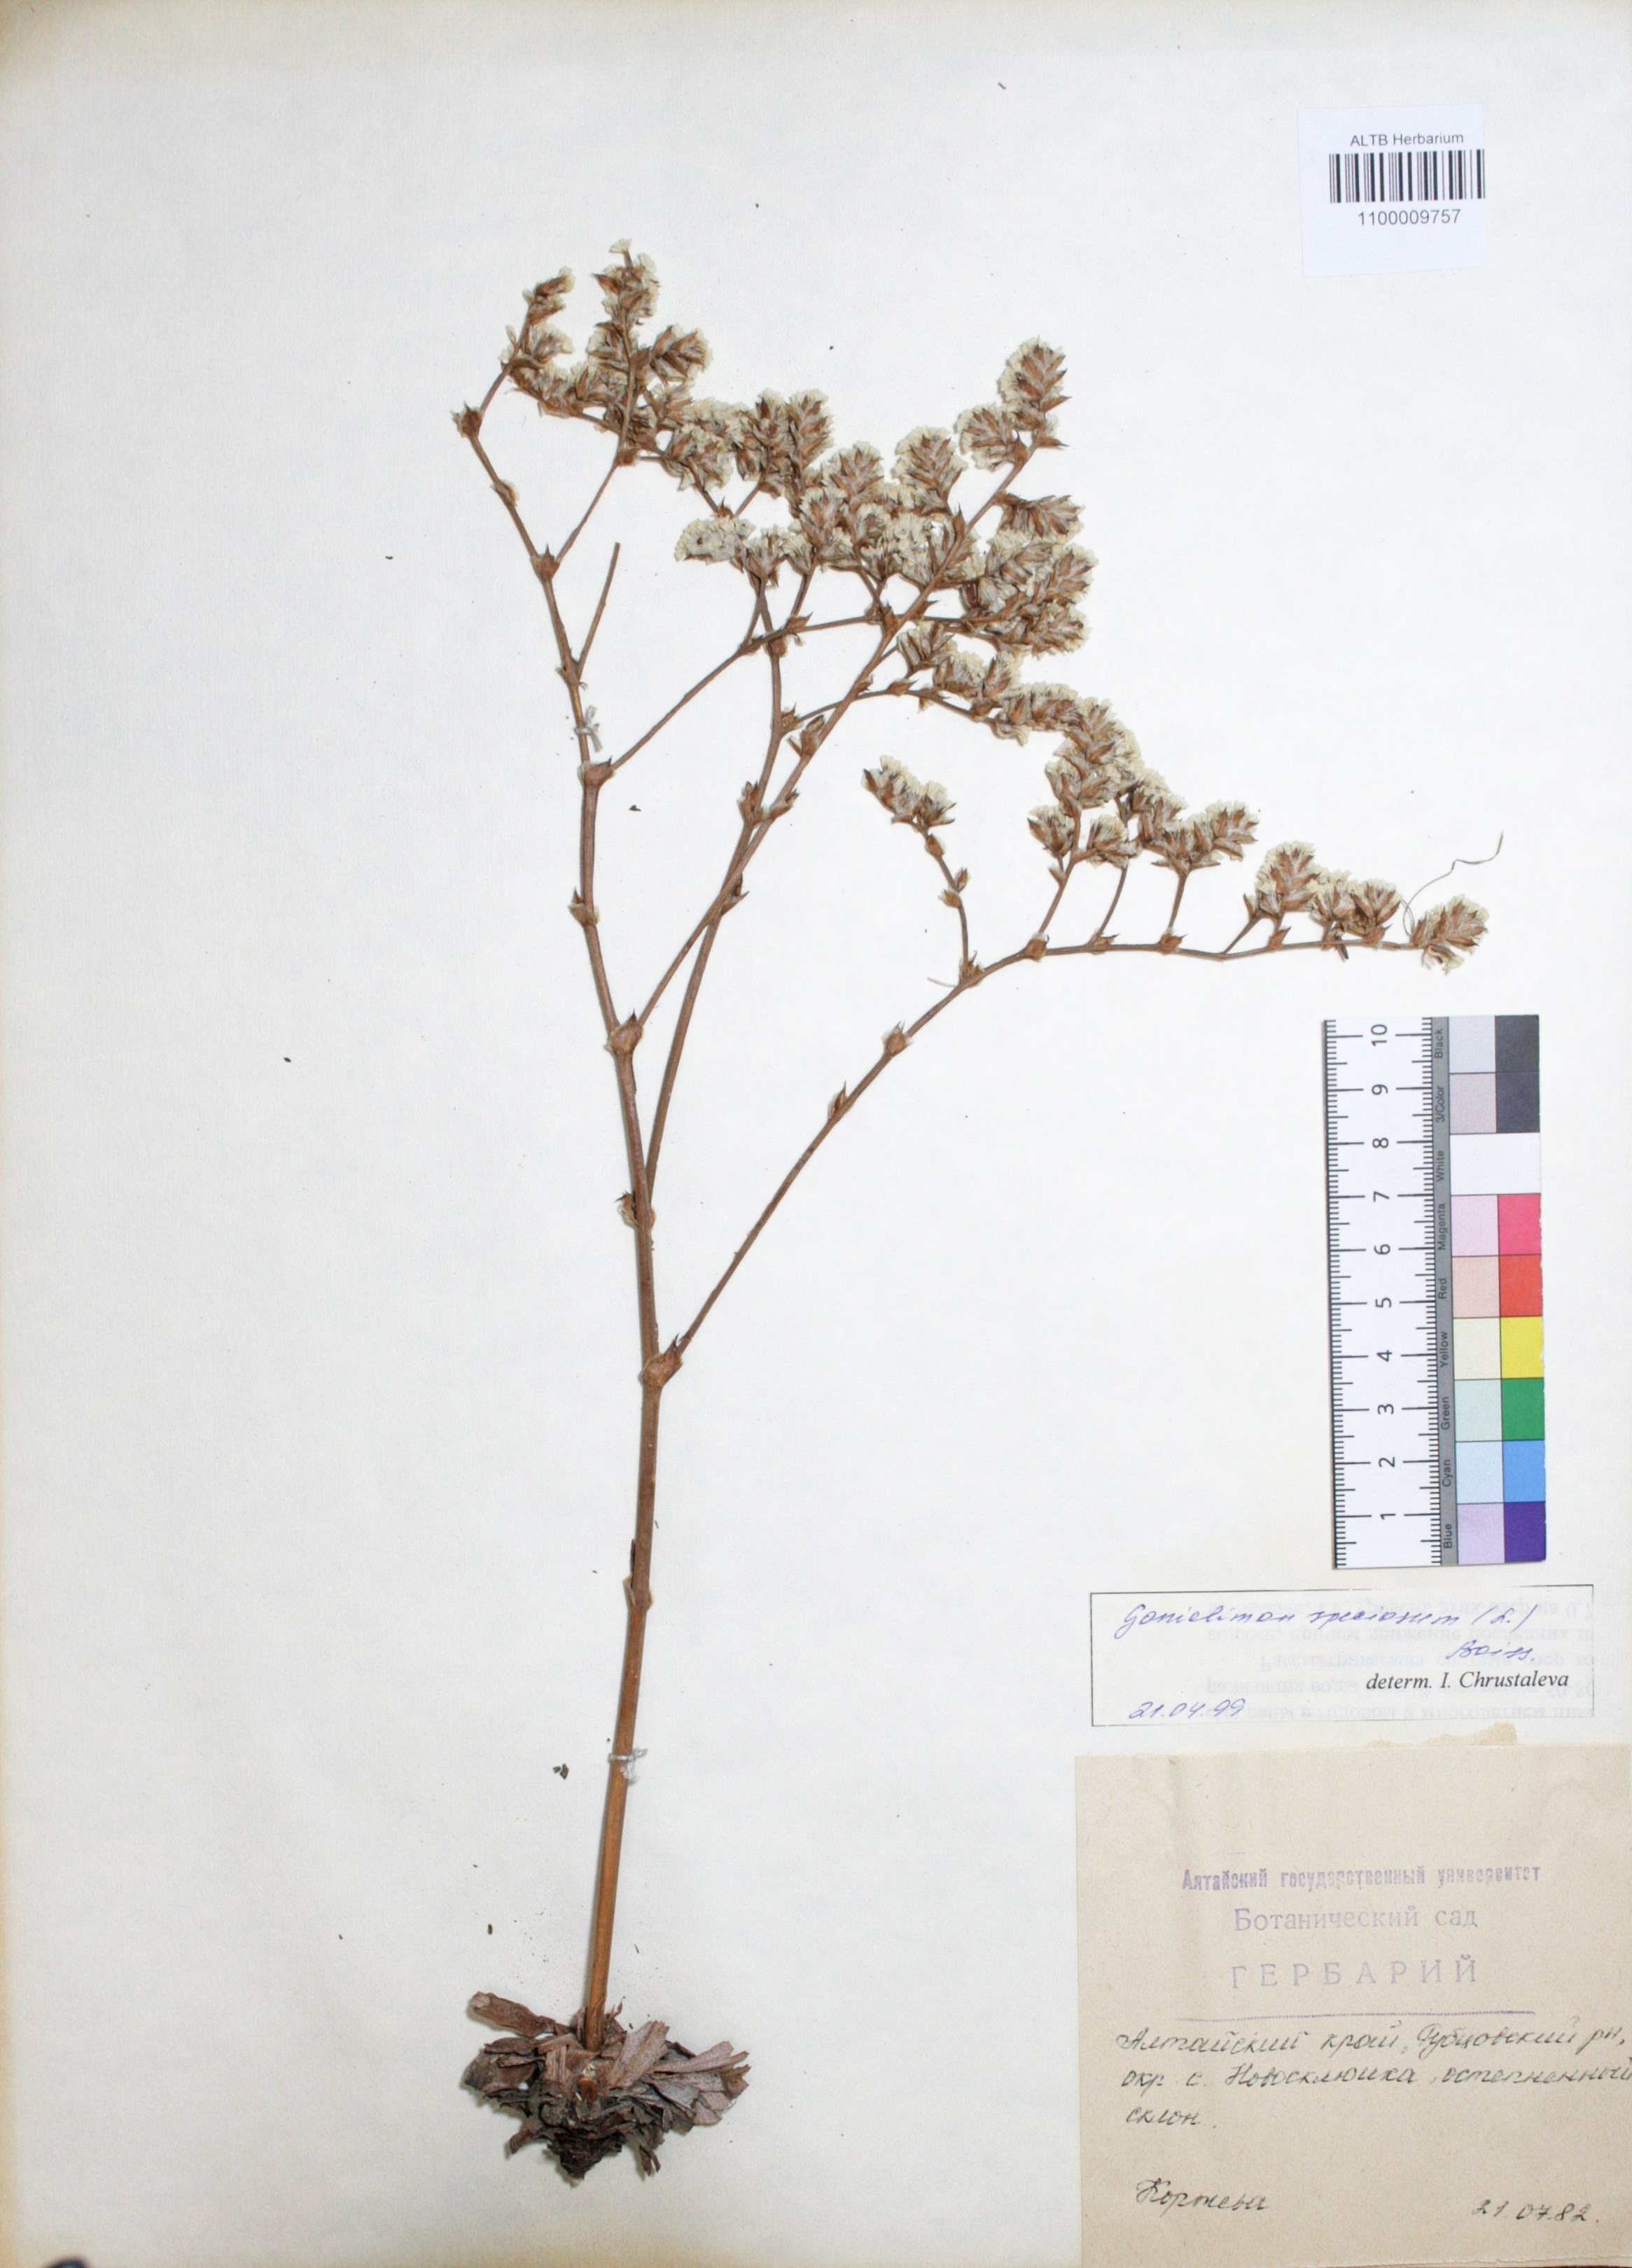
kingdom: Plantae
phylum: Tracheophyta
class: Magnoliopsida
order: Caryophyllales
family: Plumbaginaceae
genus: Goniolimon
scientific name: Goniolimon speciosum
